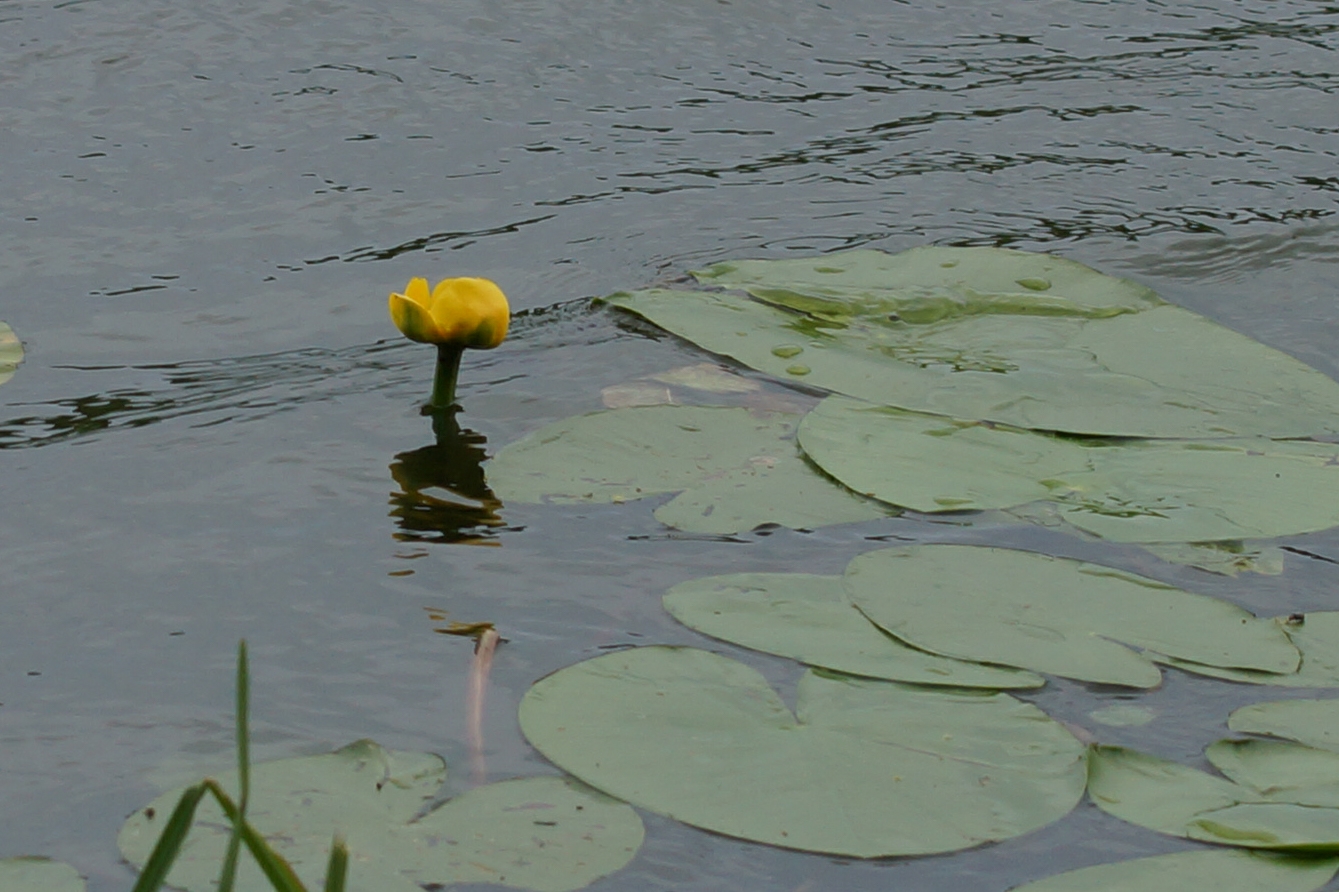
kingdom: Plantae
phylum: Tracheophyta
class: Magnoliopsida
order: Nymphaeales
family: Nymphaeaceae
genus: Nuphar
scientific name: Nuphar lutea
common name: Gul åkande
